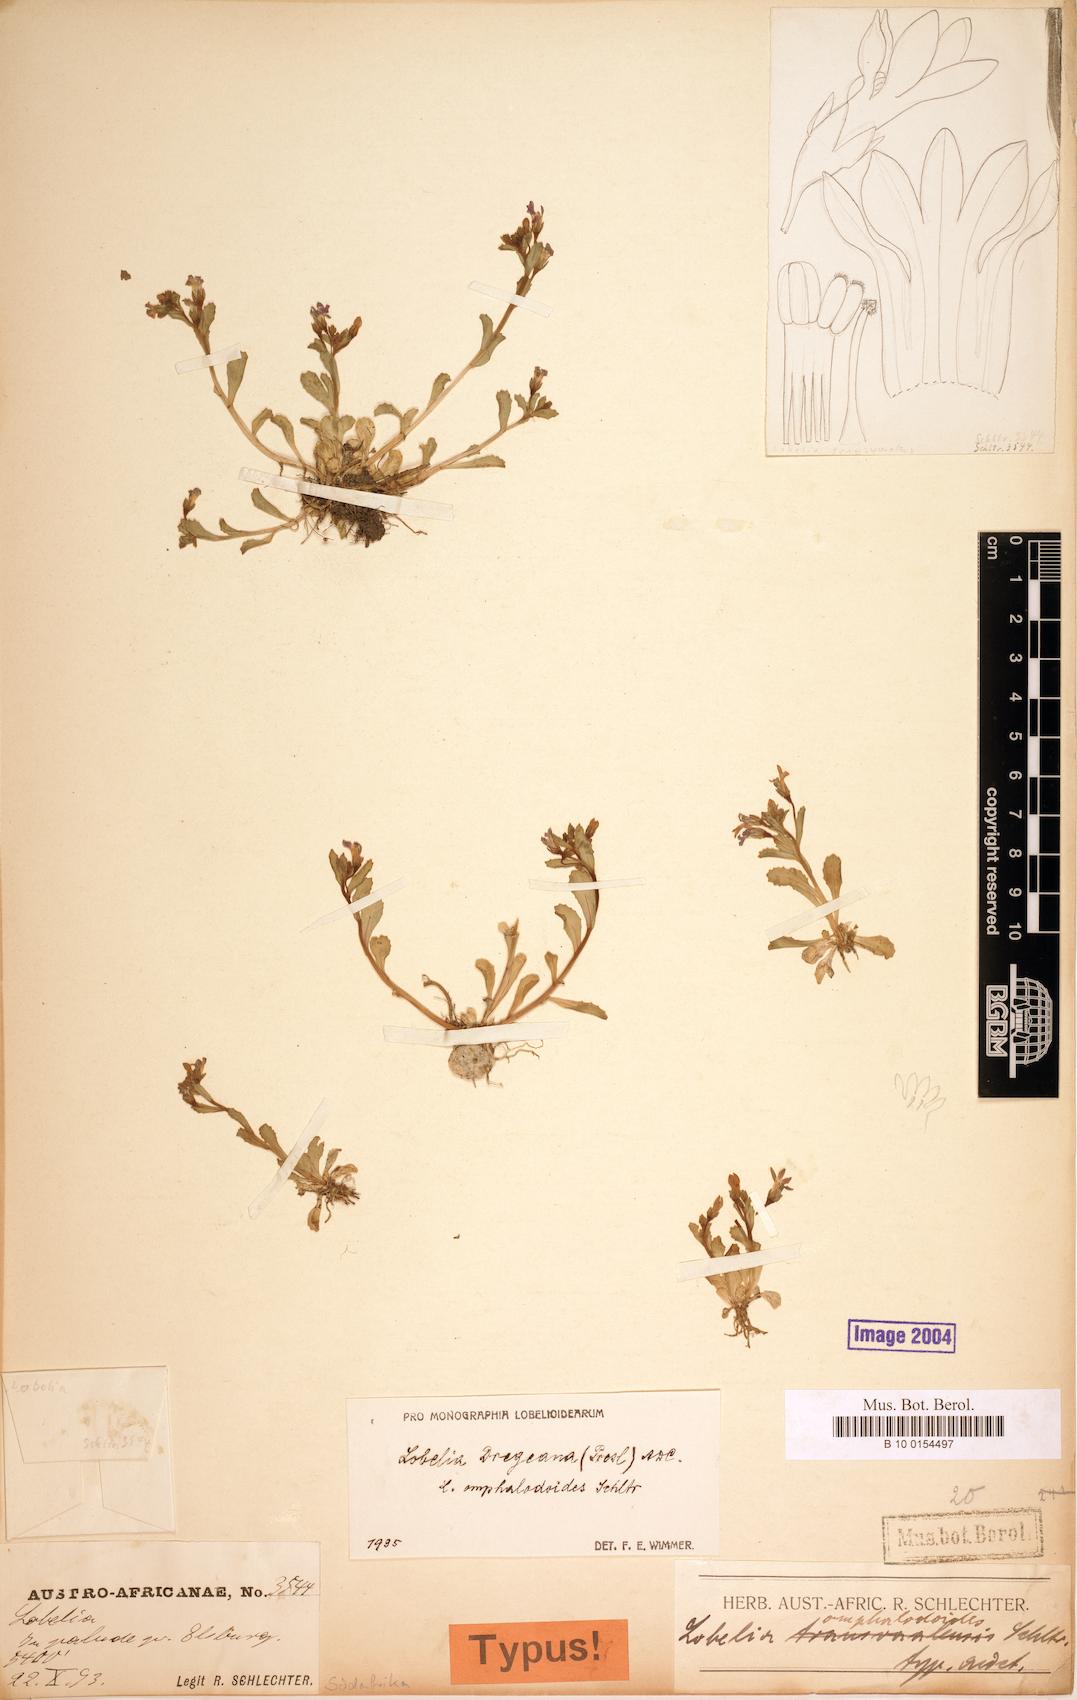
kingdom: Plantae
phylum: Tracheophyta
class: Magnoliopsida
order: Asterales
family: Campanulaceae
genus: Lobelia
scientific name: Lobelia dregeana
